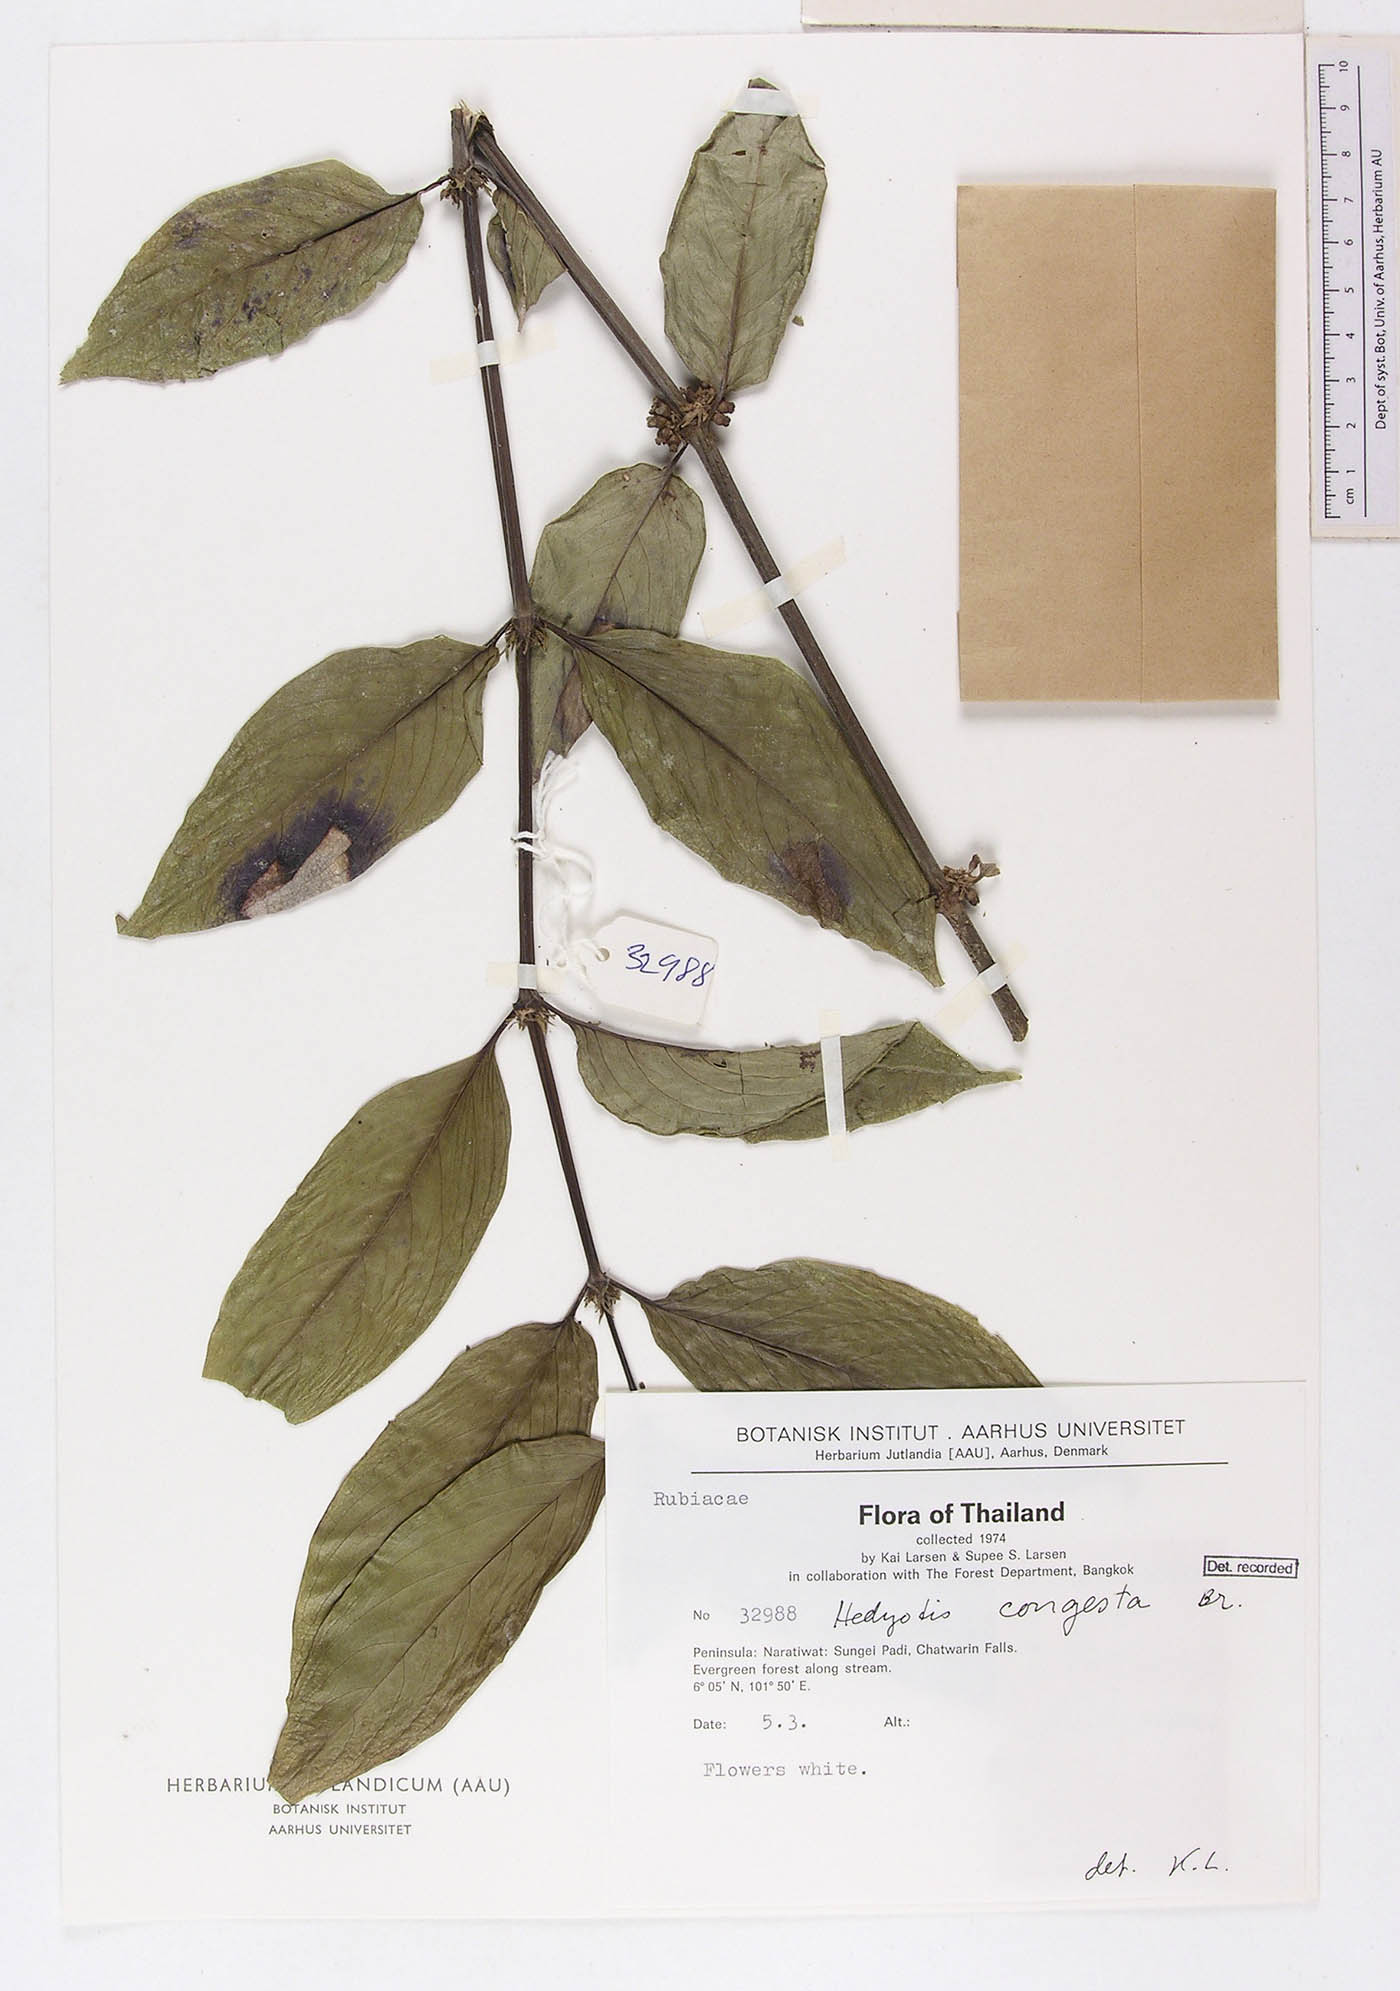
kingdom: Plantae
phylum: Tracheophyta
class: Magnoliopsida
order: Gentianales
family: Rubiaceae
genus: Hedyotis
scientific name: Hedyotis prostrata
